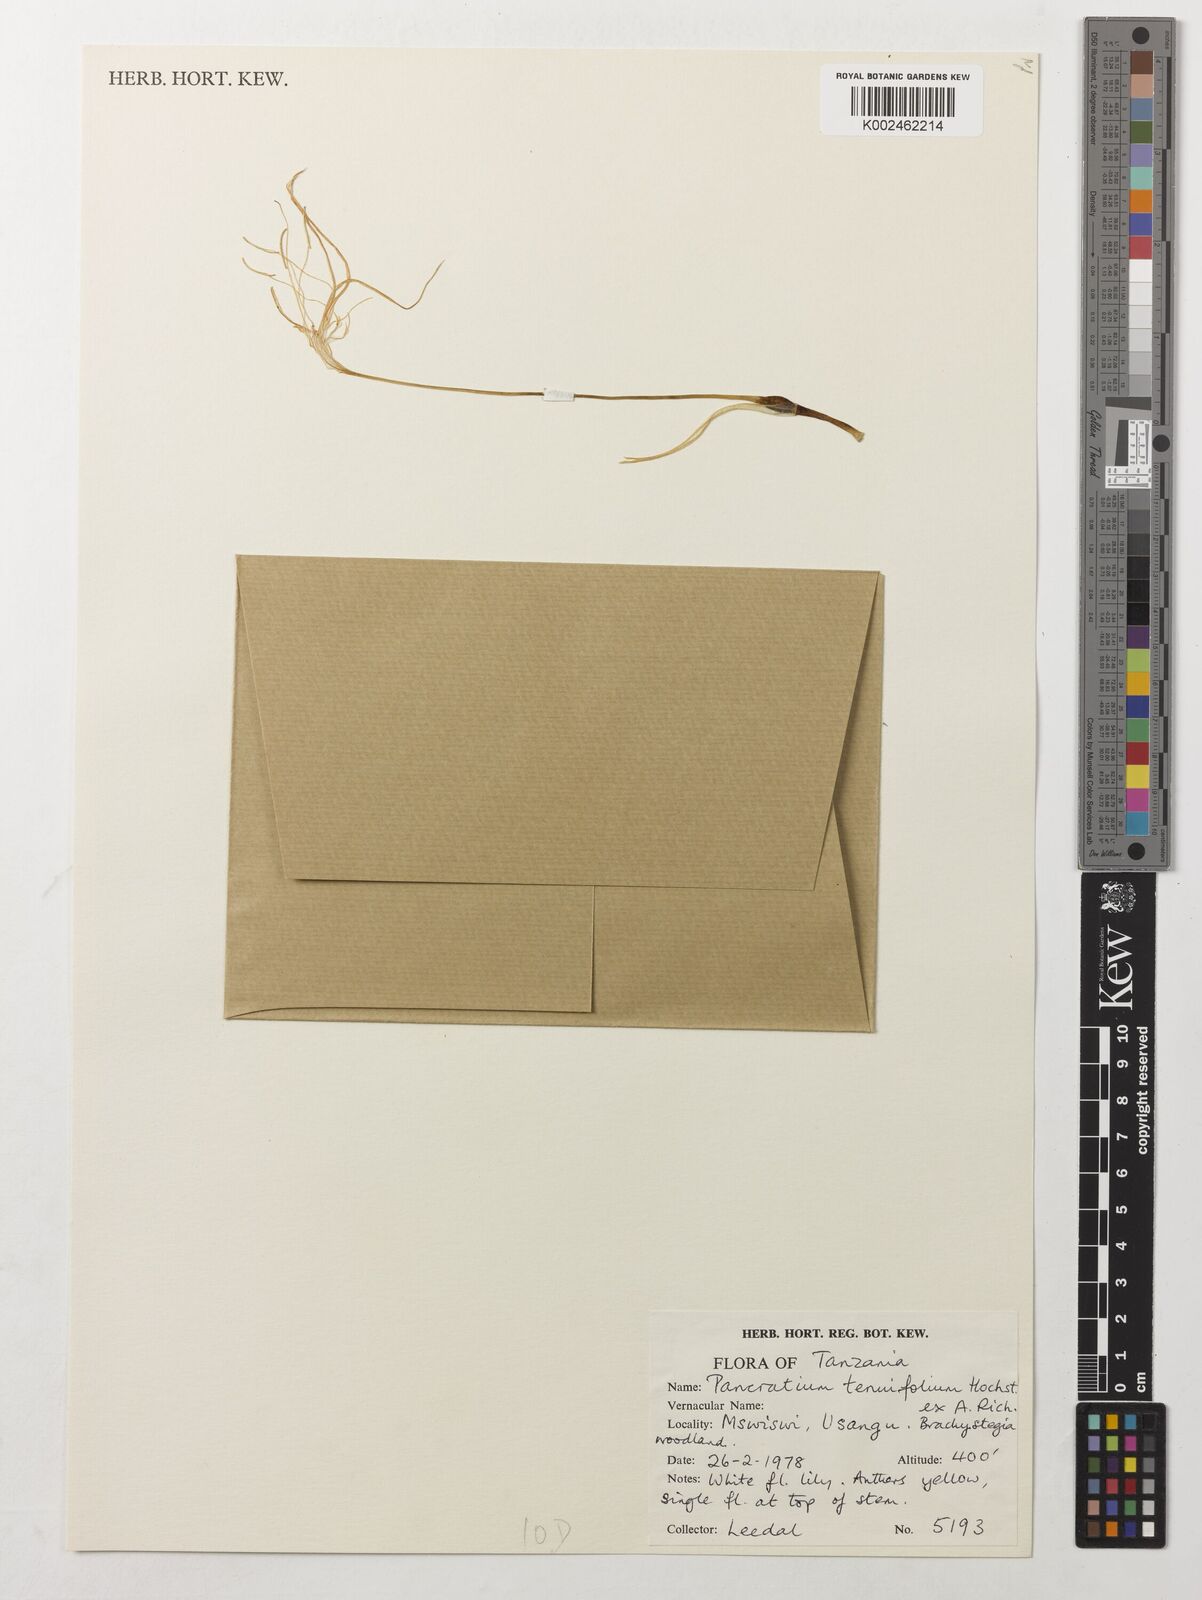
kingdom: Plantae
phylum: Tracheophyta
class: Liliopsida
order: Asparagales
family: Amaryllidaceae
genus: Pancratium
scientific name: Pancratium tenuifolium
